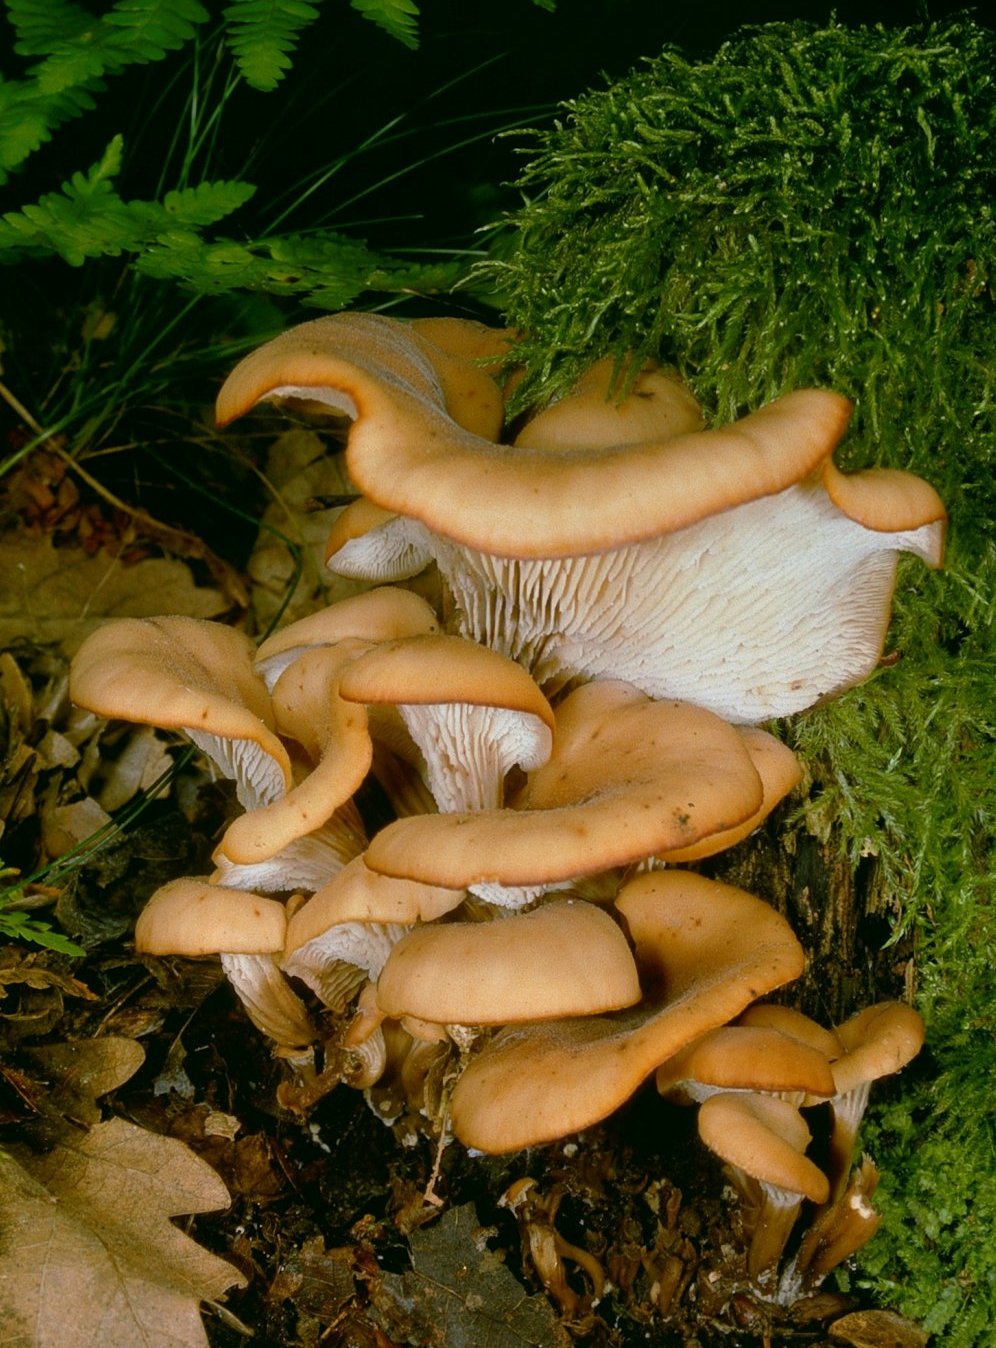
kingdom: Fungi
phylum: Basidiomycota
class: Agaricomycetes
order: Russulales
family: Auriscalpiaceae
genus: Lentinellus
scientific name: Lentinellus cochleatus
